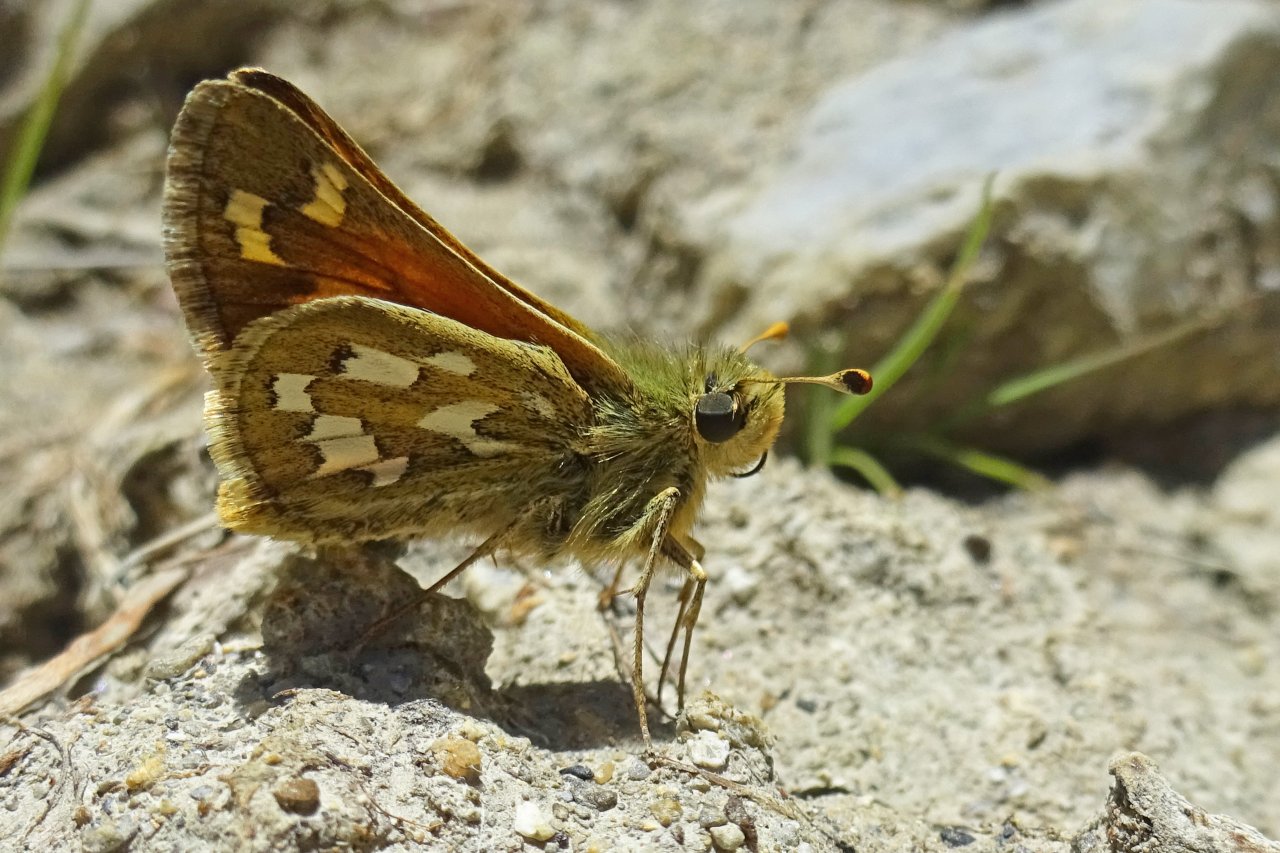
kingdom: Animalia
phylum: Arthropoda
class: Insecta
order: Lepidoptera
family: Hesperiidae
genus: Hesperia
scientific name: Hesperia nevada
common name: Nevada Skipper
